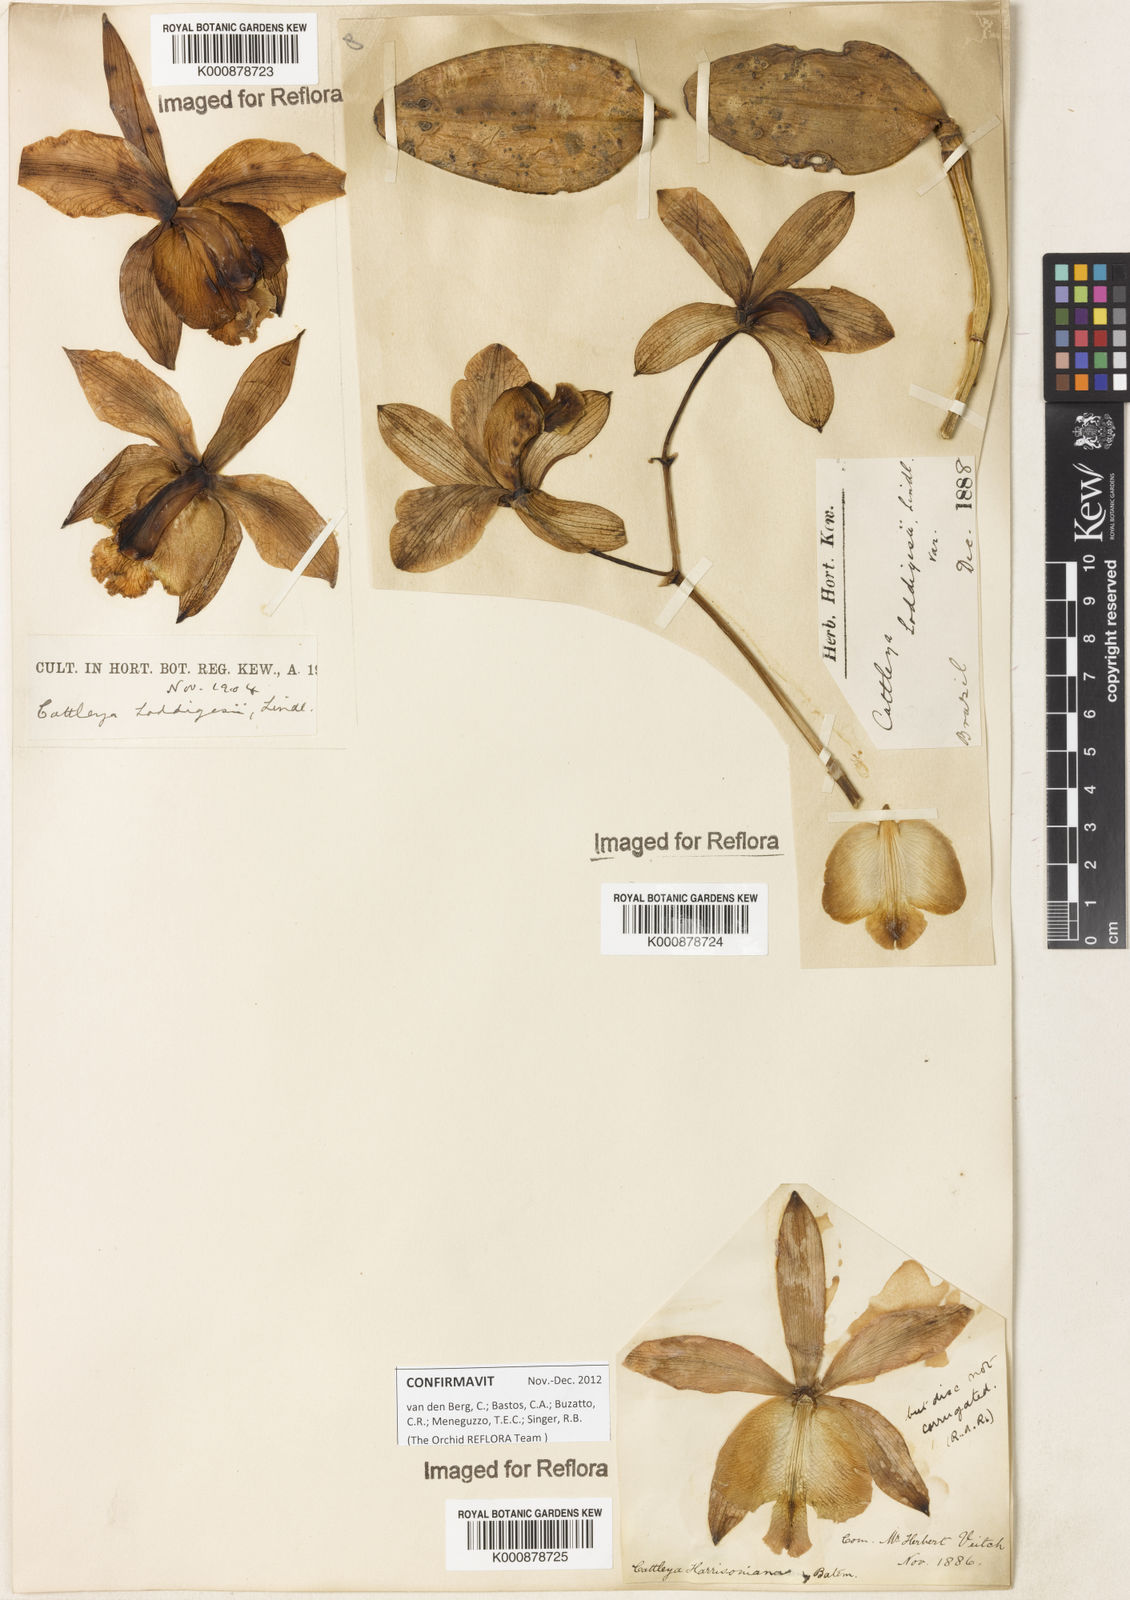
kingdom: Plantae
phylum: Tracheophyta
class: Liliopsida
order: Asparagales
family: Orchidaceae
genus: Cattleya
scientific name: Cattleya loddigesii
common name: Loddiges's cattleya
